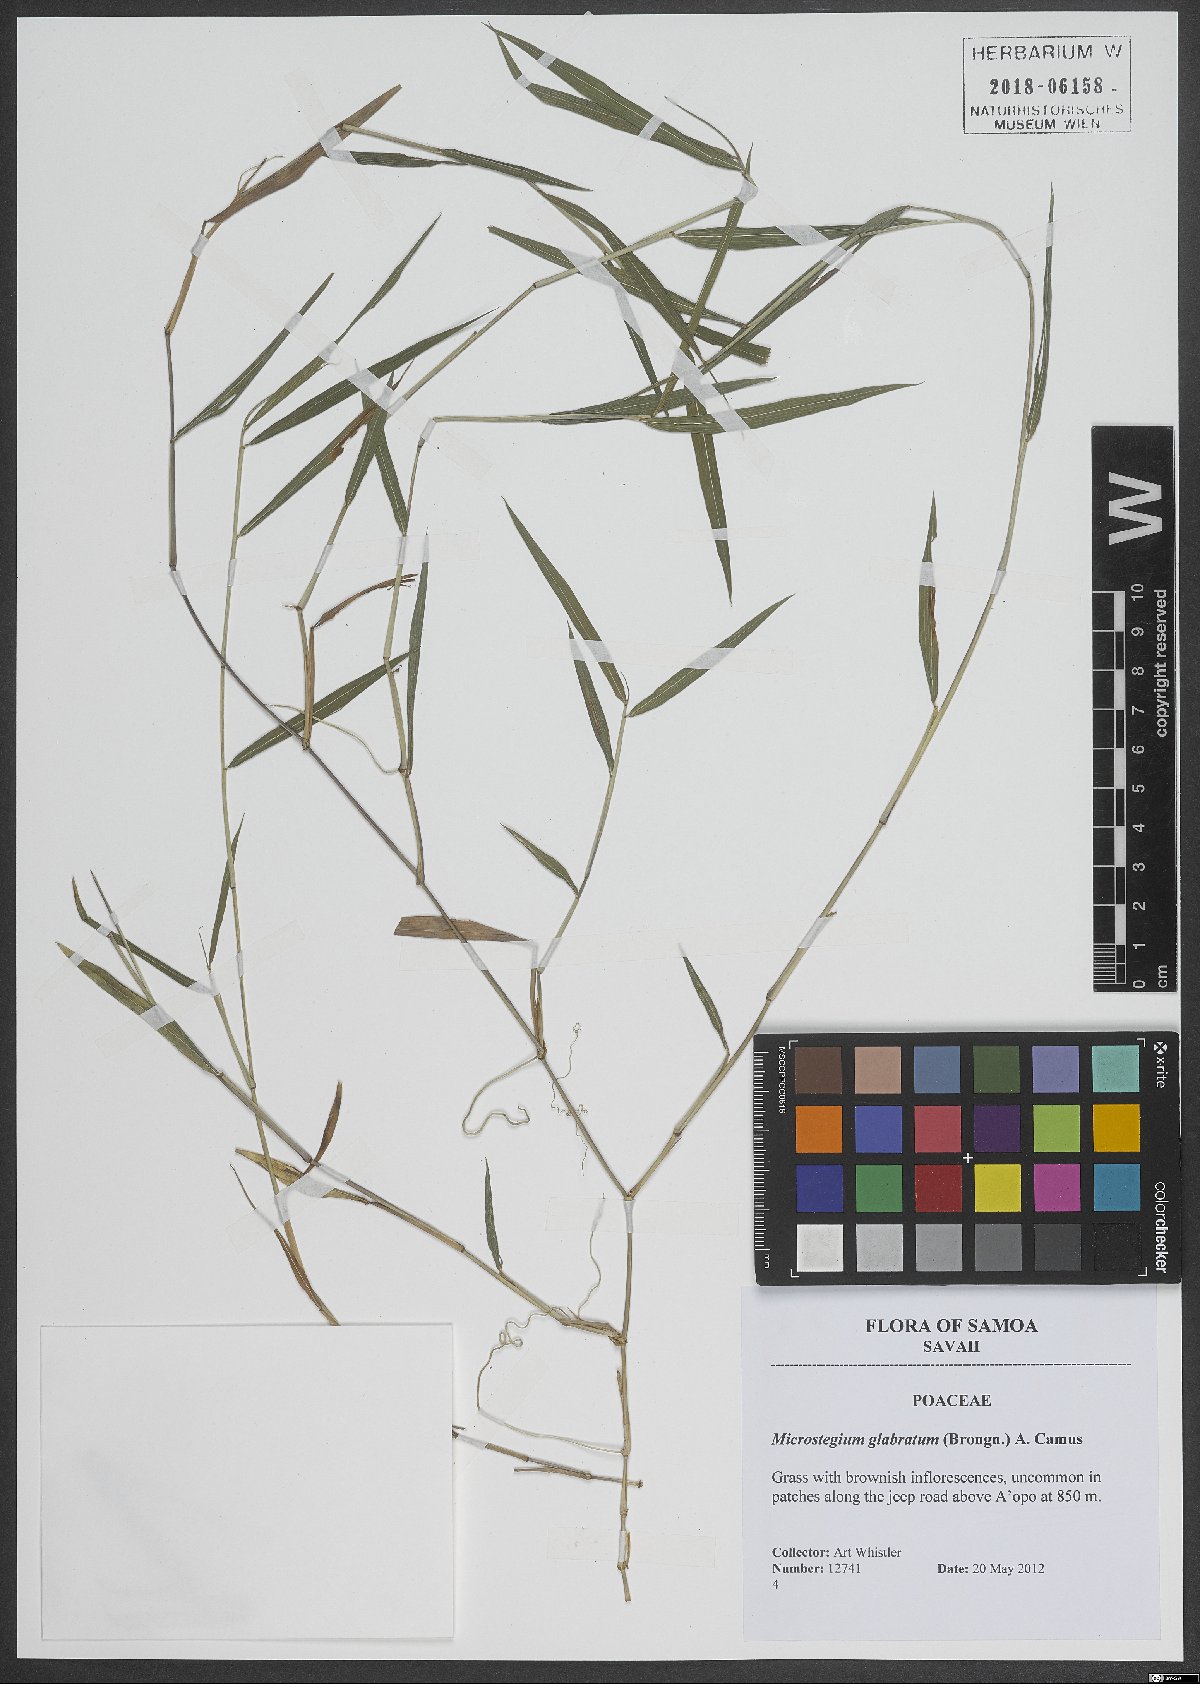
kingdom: Plantae
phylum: Tracheophyta
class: Liliopsida
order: Poales
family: Poaceae
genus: Microstegium
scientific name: Microstegium glabratum
